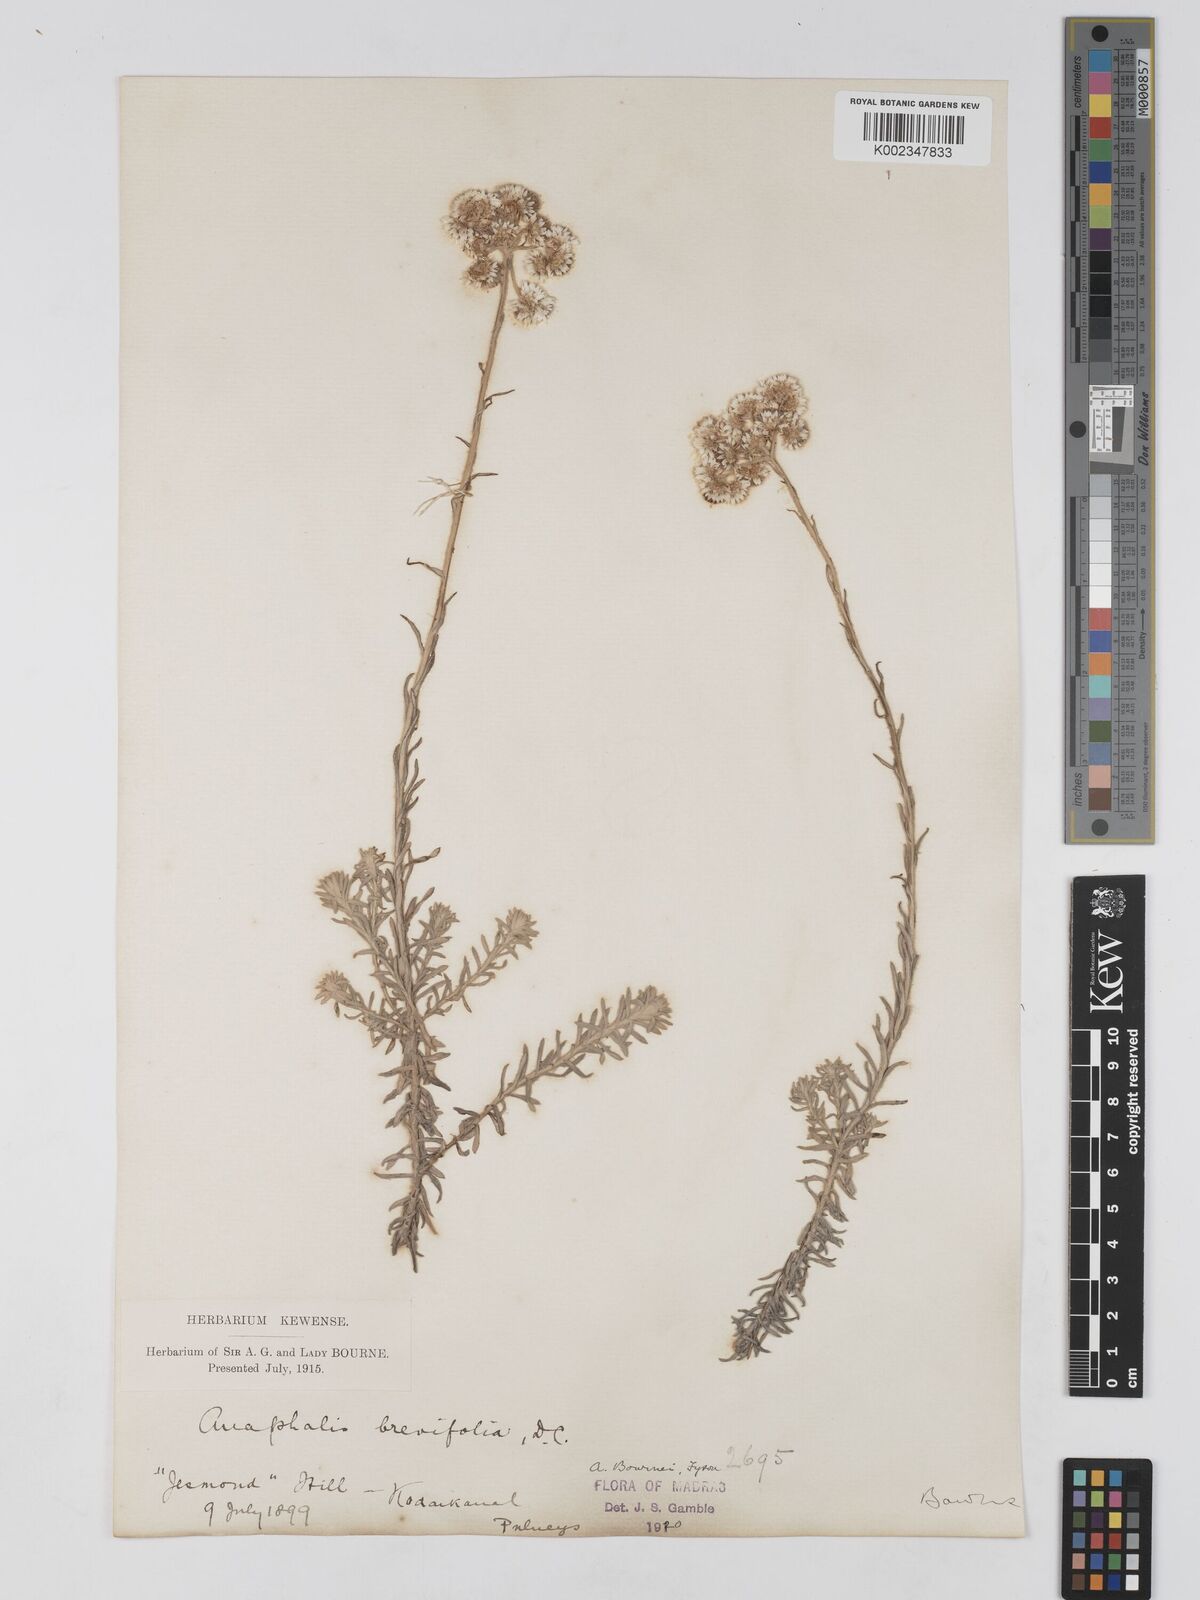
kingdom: Plantae
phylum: Tracheophyta
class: Magnoliopsida
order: Asterales
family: Asteraceae
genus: Anaphalis
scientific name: Anaphalis brevifolia
